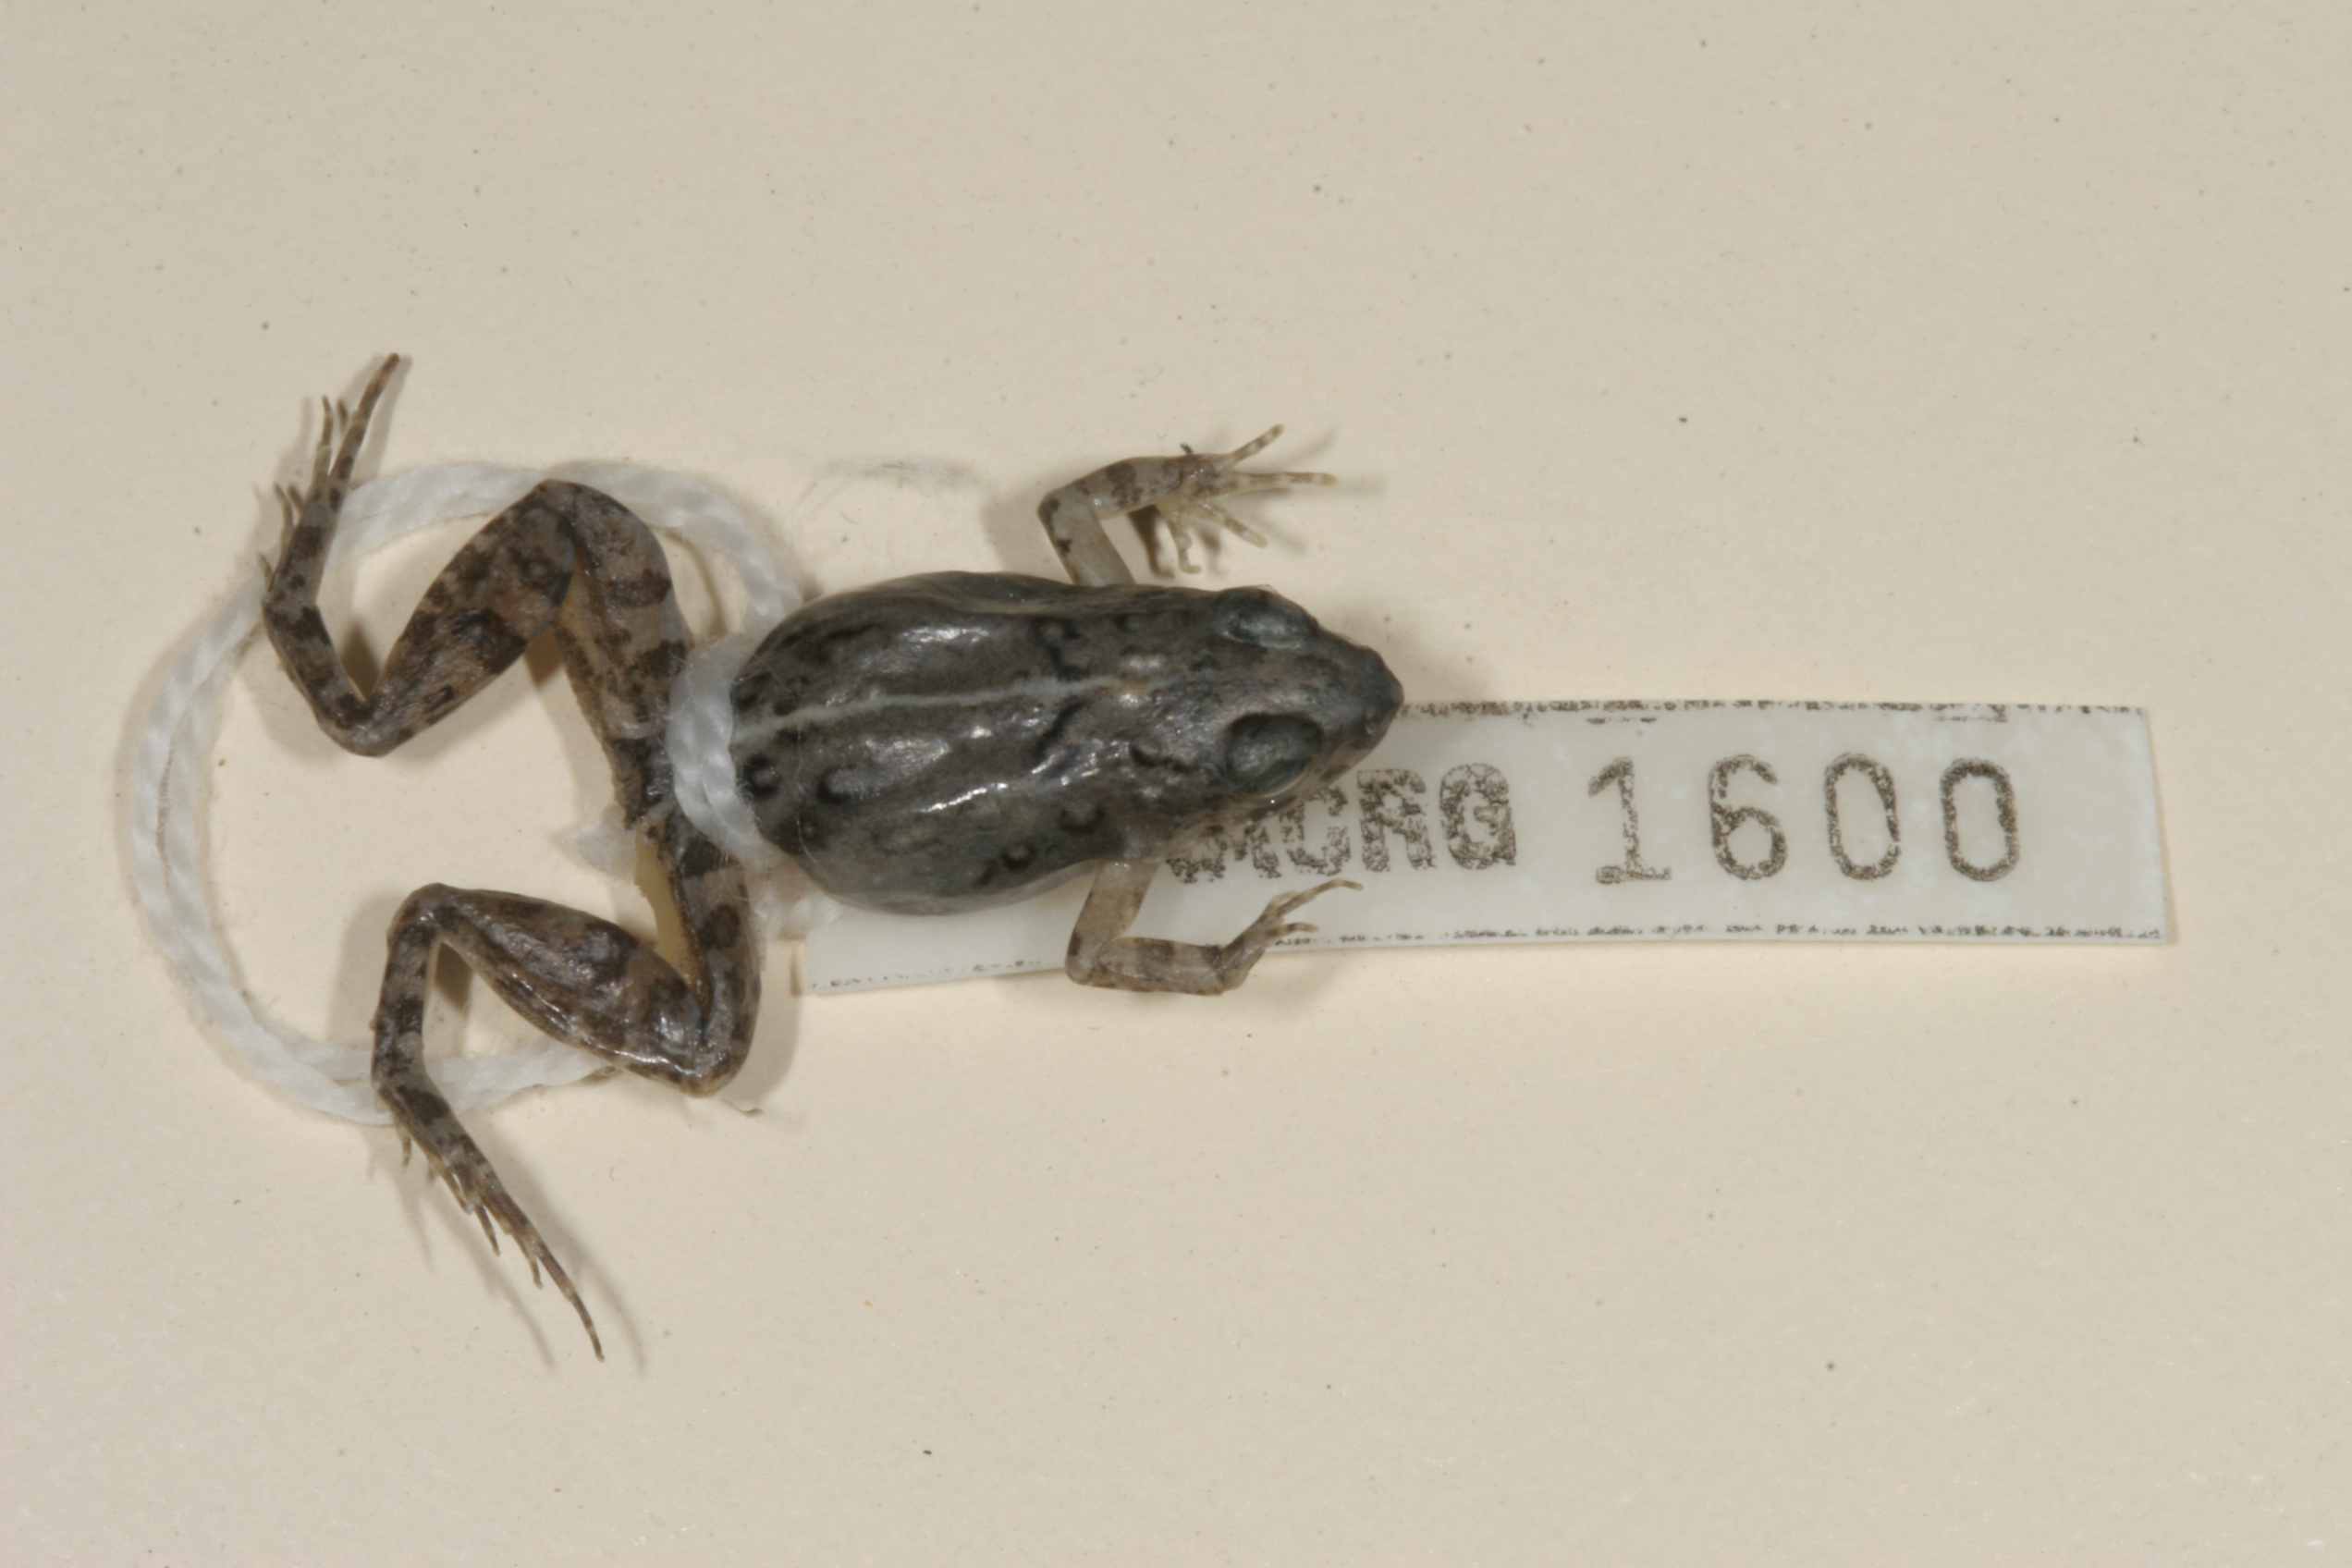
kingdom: Animalia
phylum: Chordata
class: Amphibia
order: Anura
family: Phrynobatrachidae
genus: Phrynobatrachus
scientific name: Phrynobatrachus mababiensis
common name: Dwarf puddle frog
